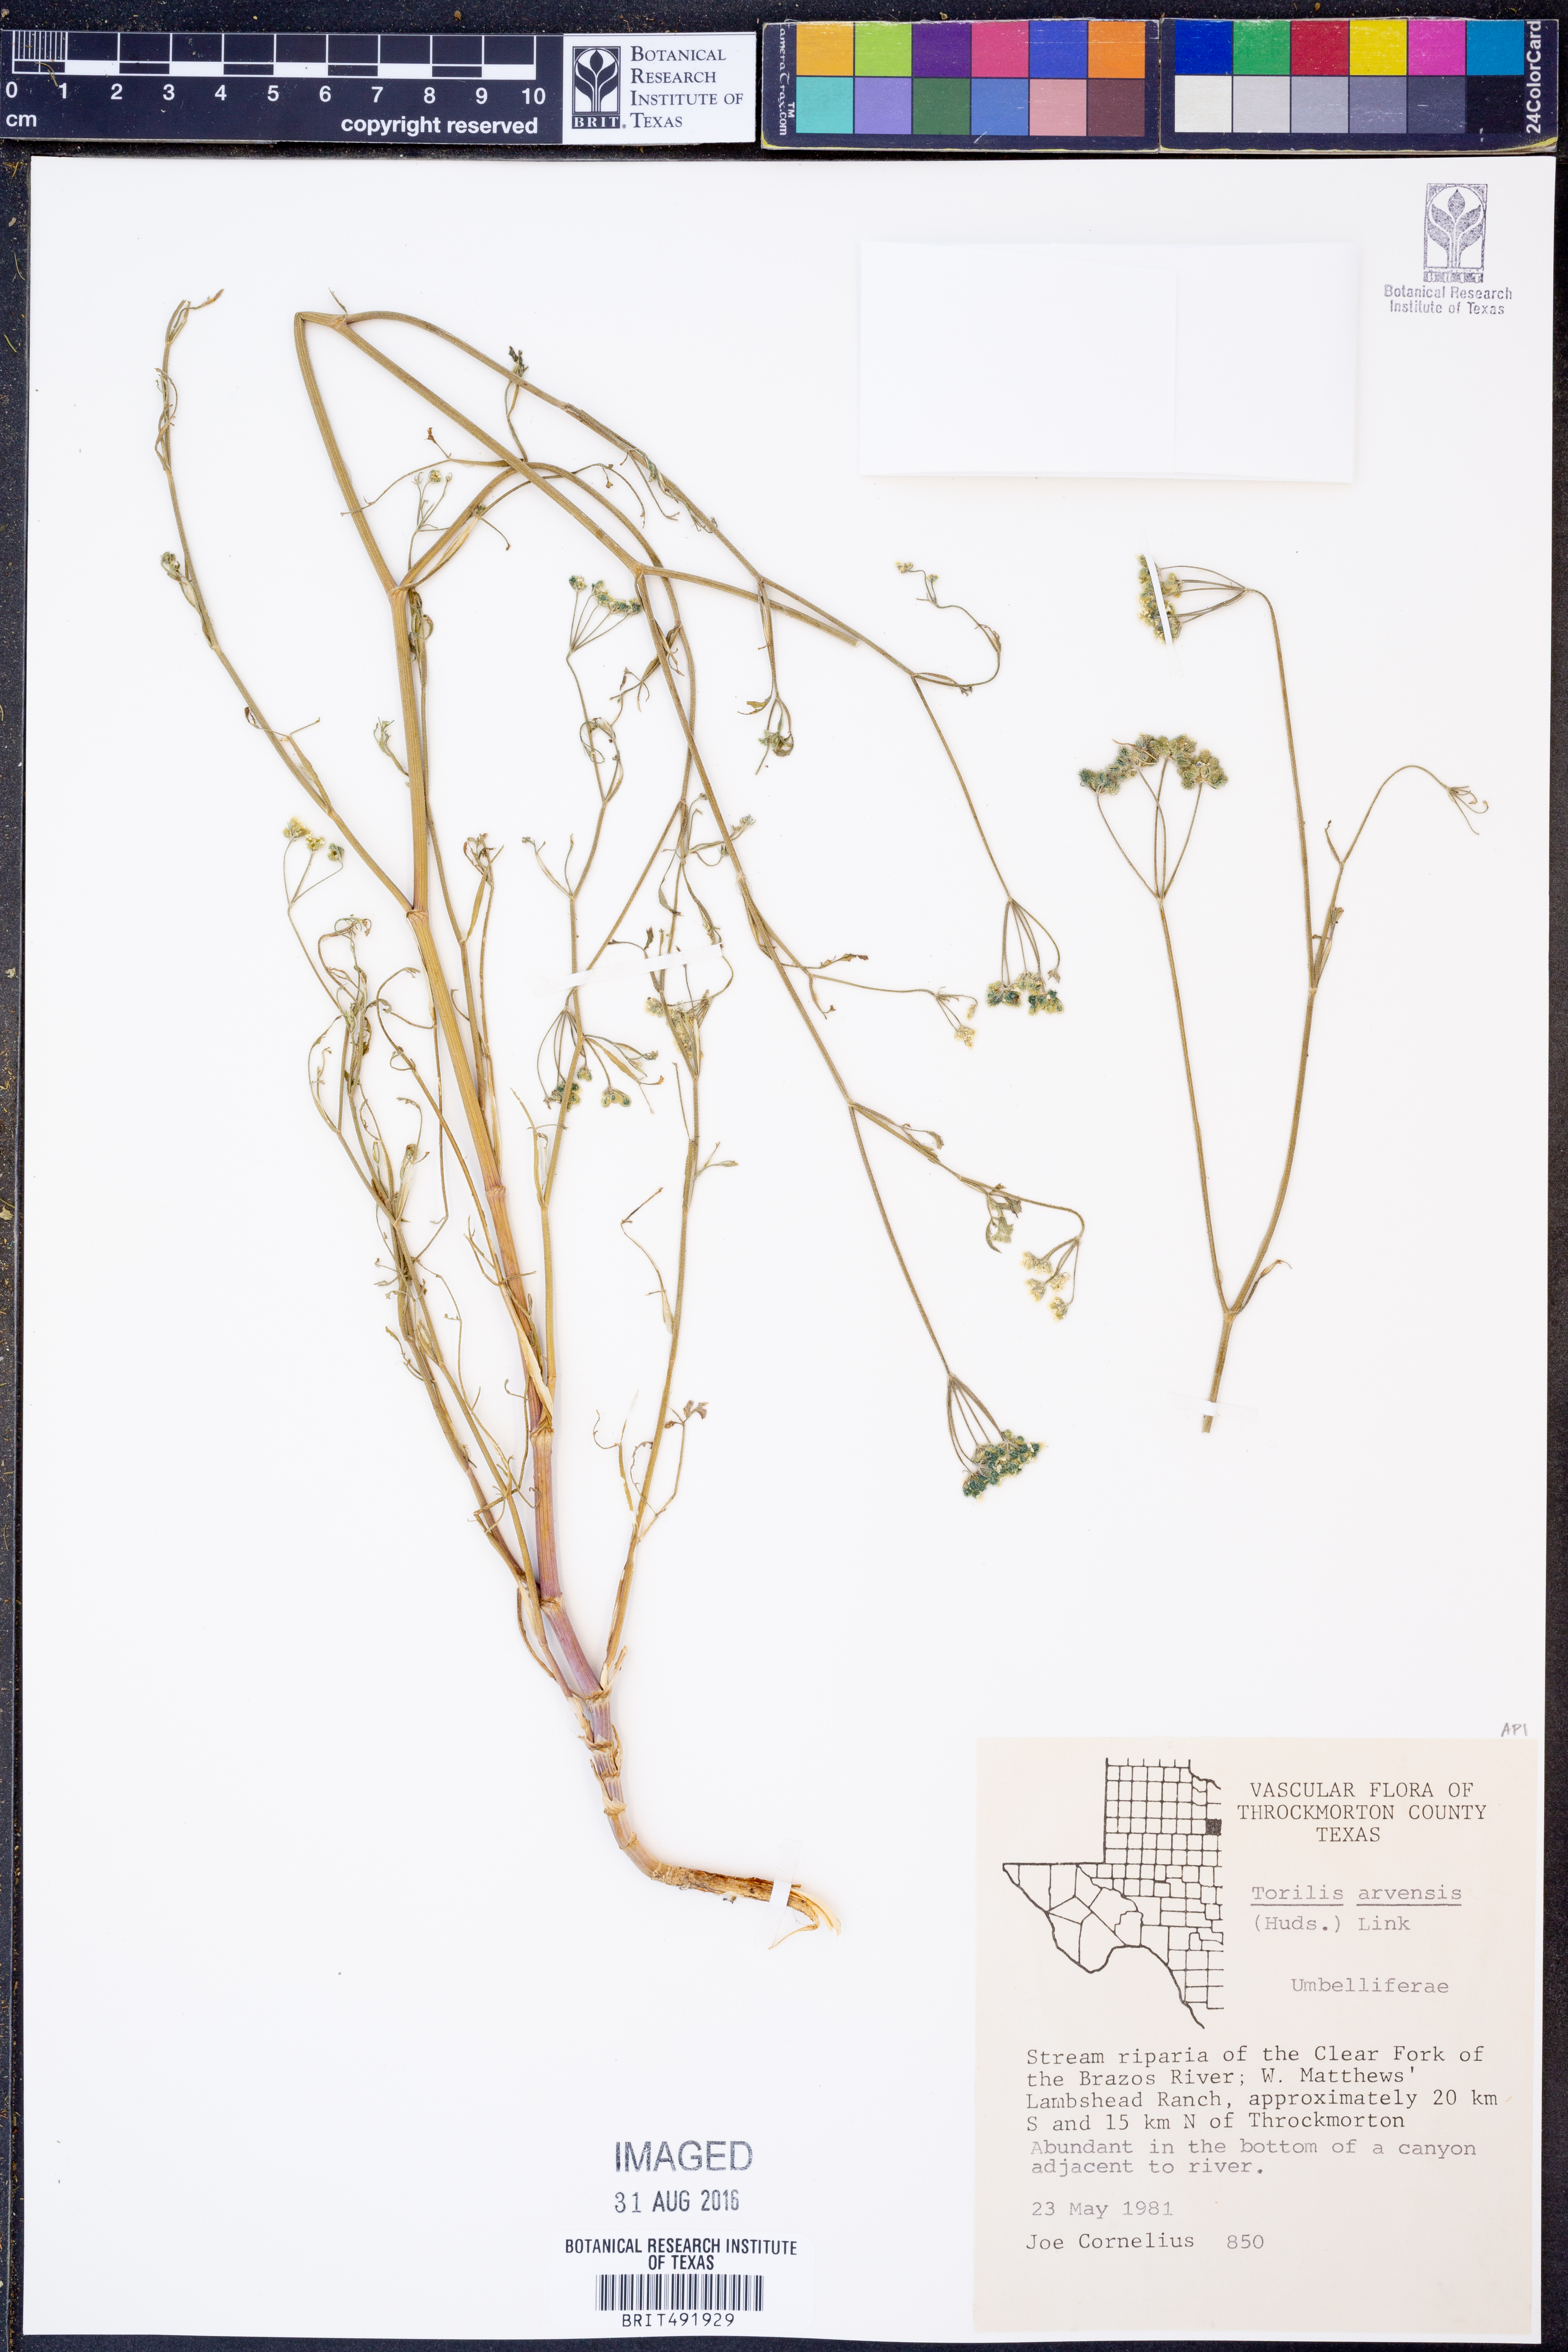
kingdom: Plantae
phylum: Tracheophyta
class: Magnoliopsida
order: Apiales
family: Apiaceae
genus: Torilis
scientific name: Torilis arvensis
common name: Spreading hedge-parsley
